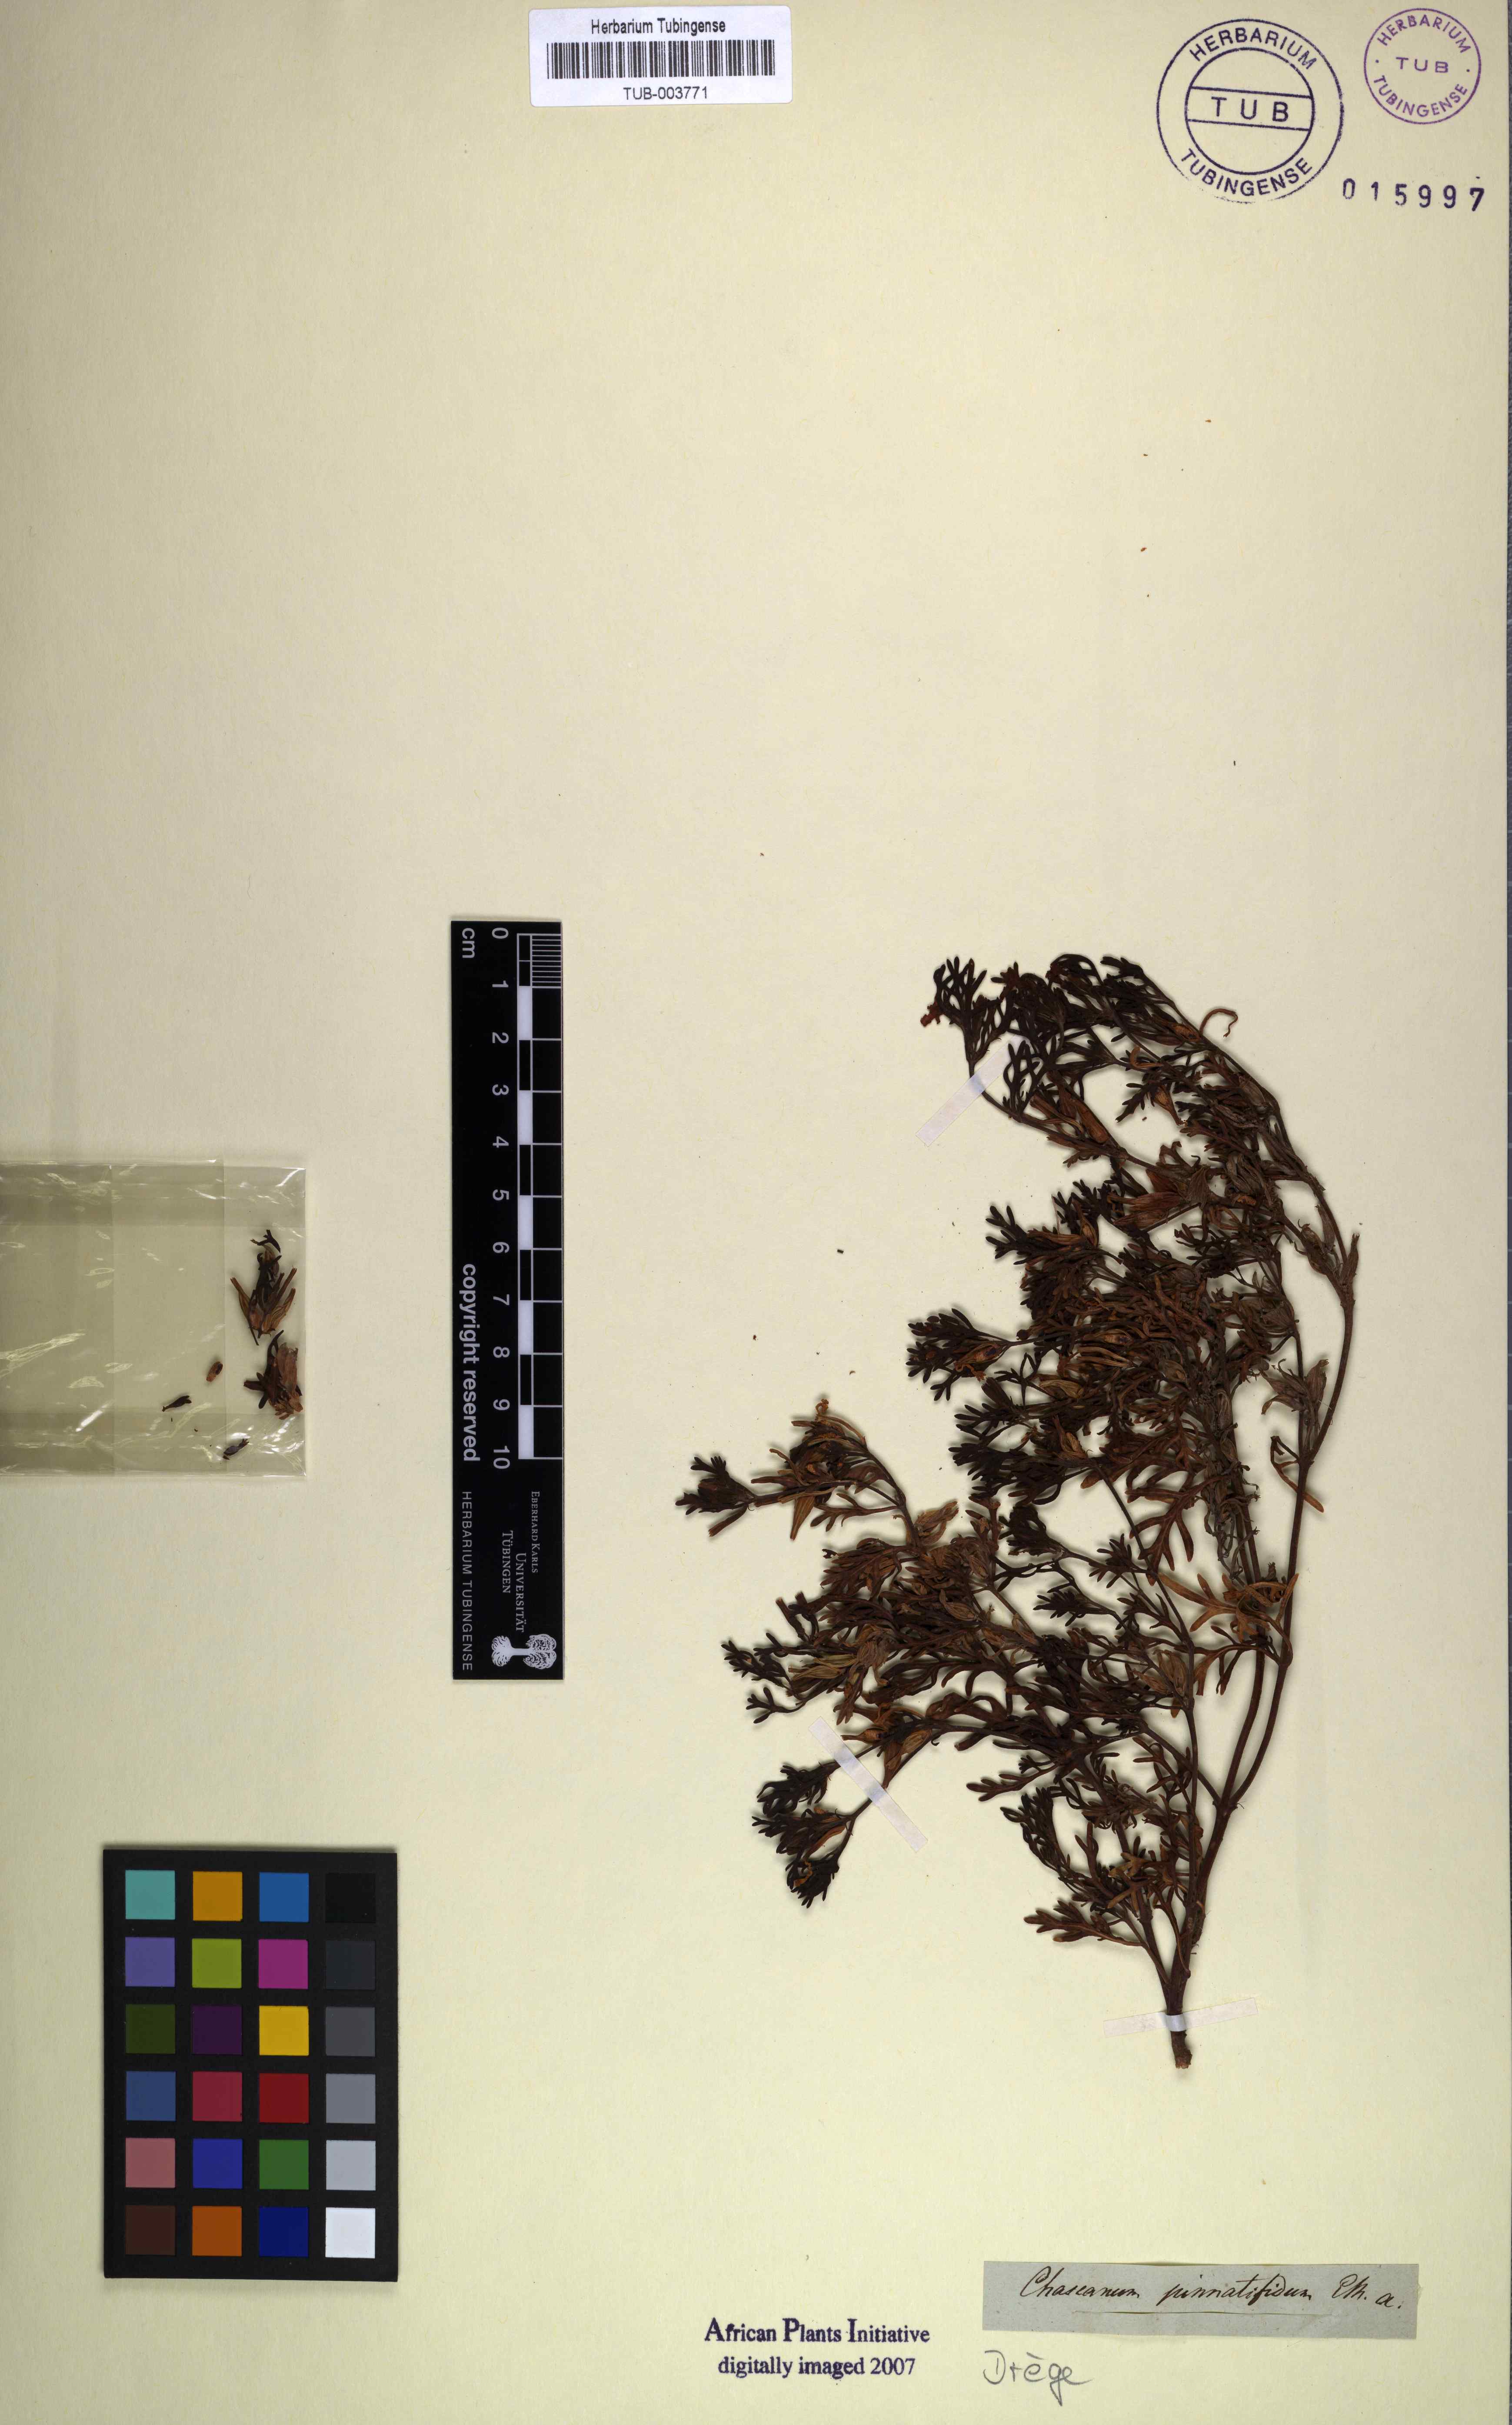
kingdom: Plantae
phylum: Tracheophyta
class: Magnoliopsida
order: Lamiales
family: Verbenaceae
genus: Chascanum
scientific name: Chascanum pinnatifidum
